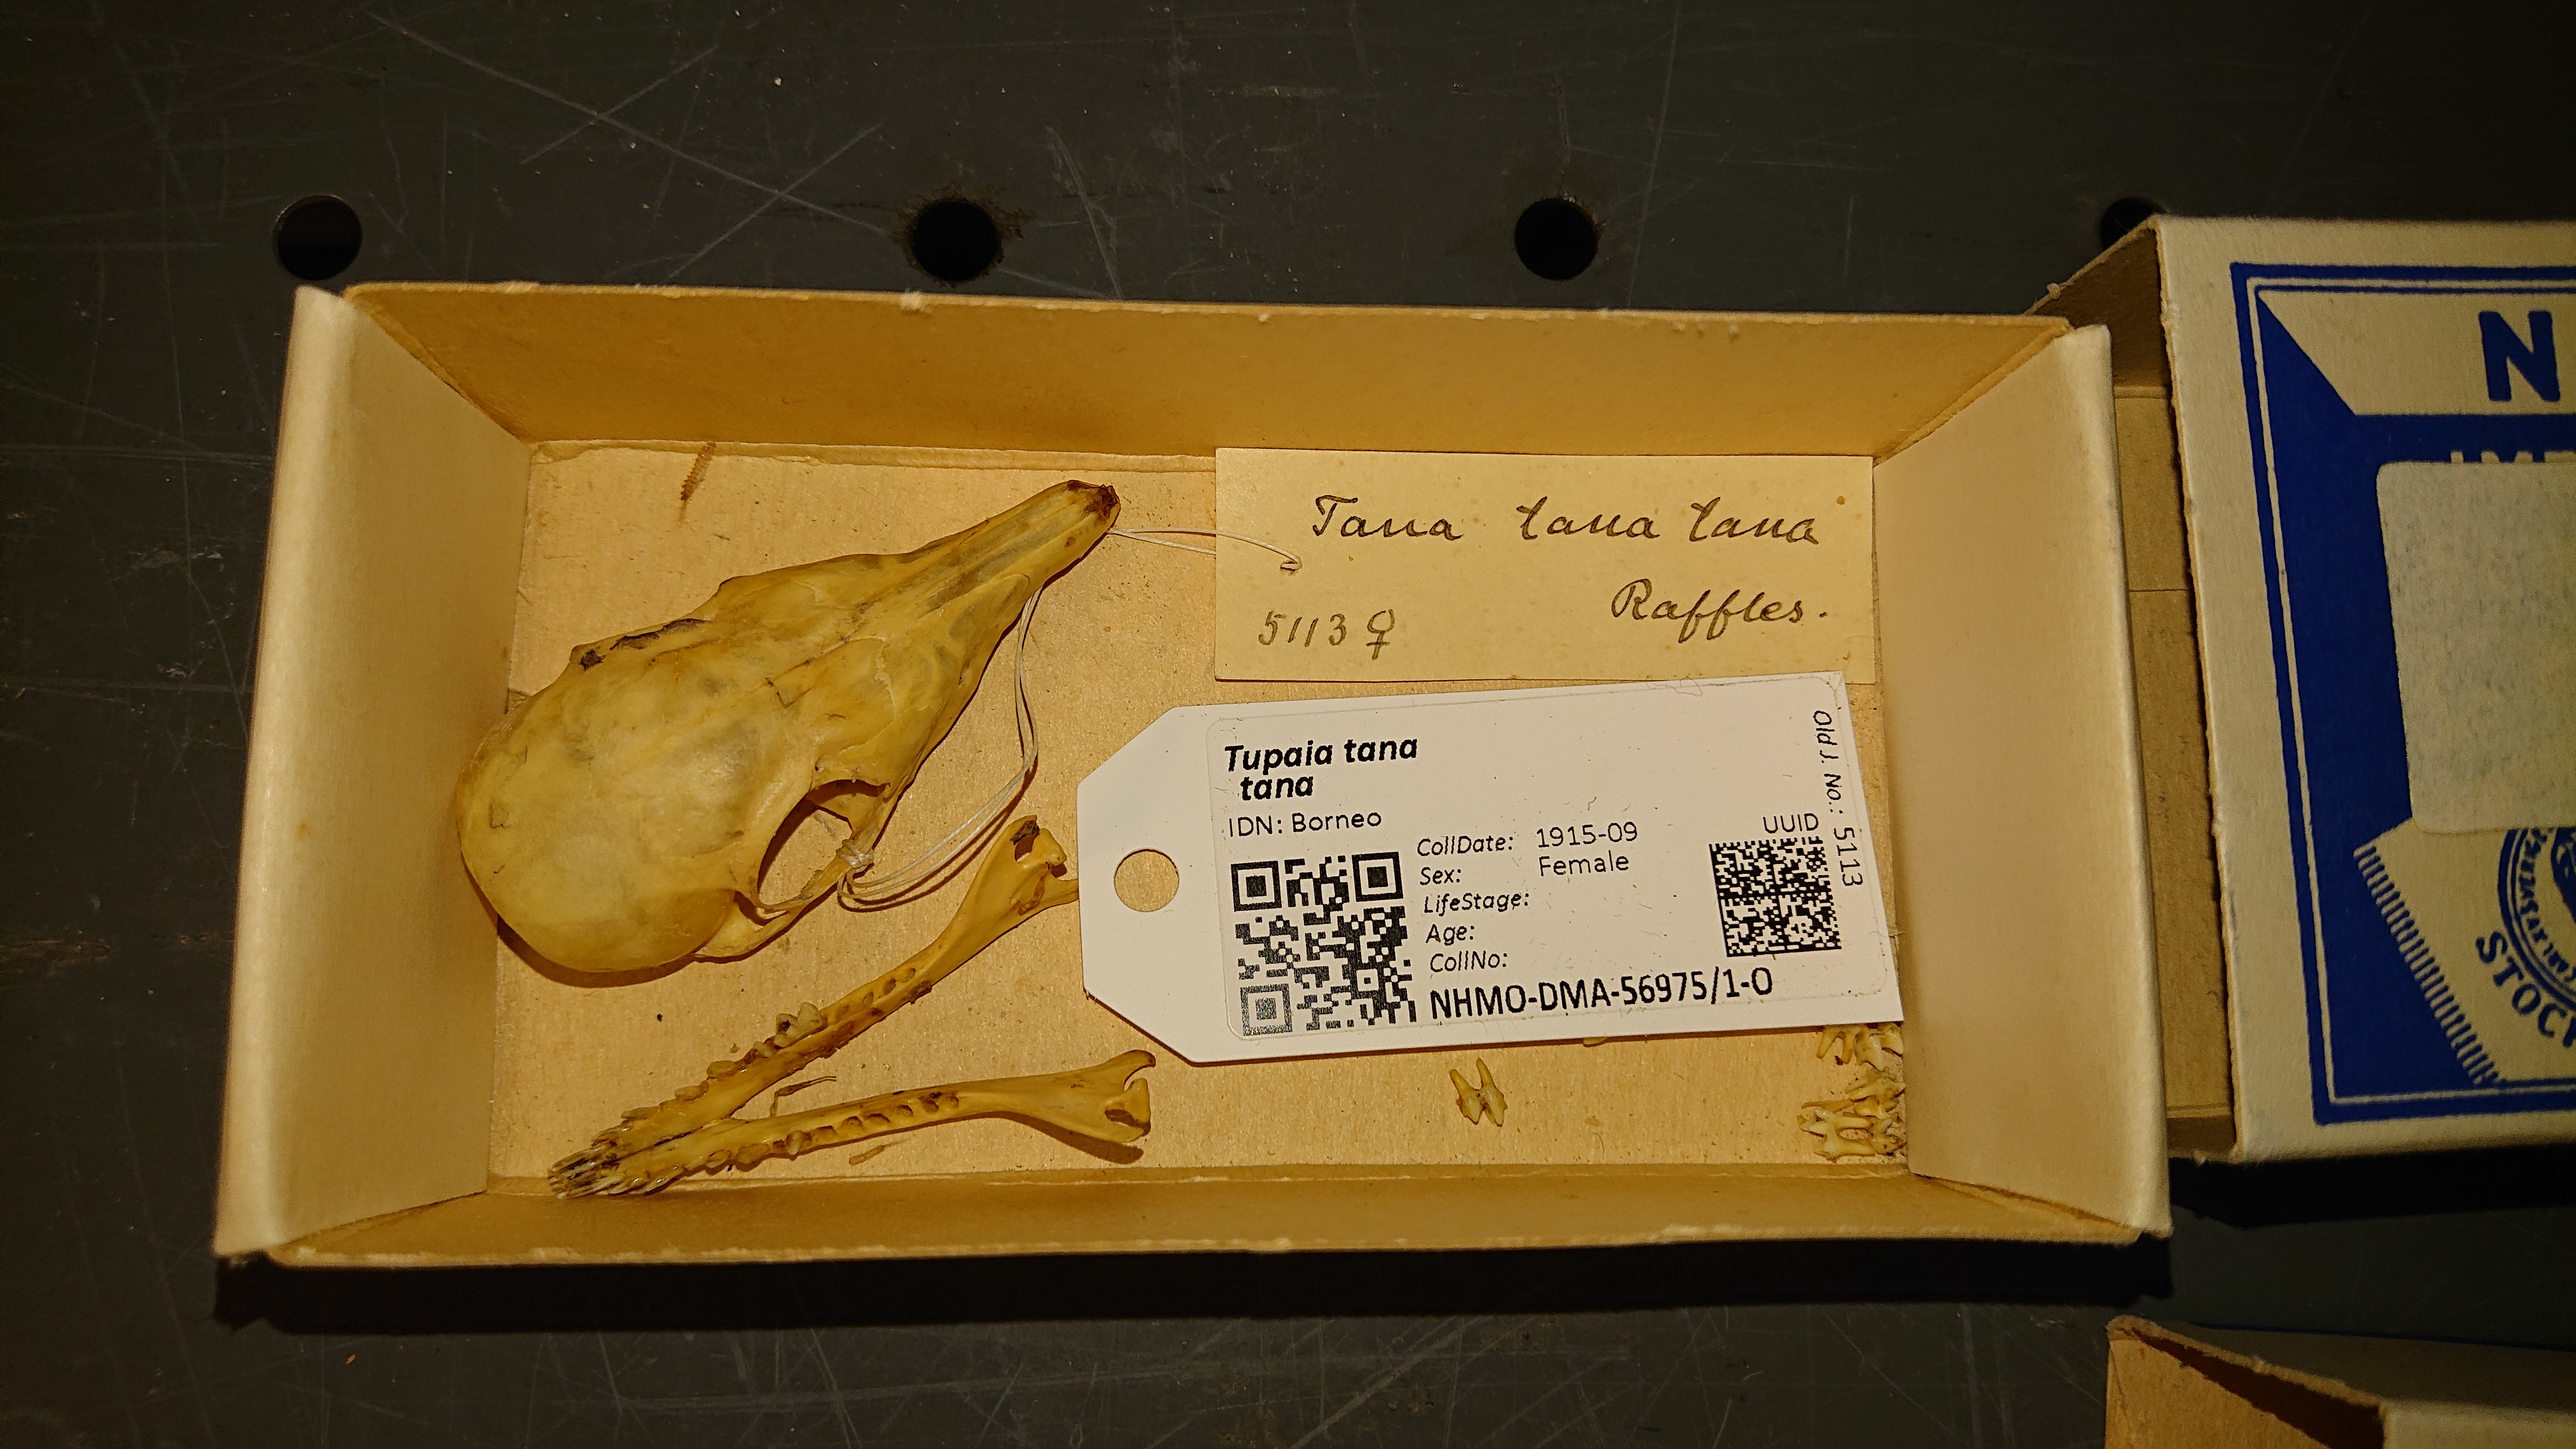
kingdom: Animalia
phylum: Chordata
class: Mammalia
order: Scandentia
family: Tupaiidae
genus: Tupaia
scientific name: Tupaia tana
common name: Large treeshrew
